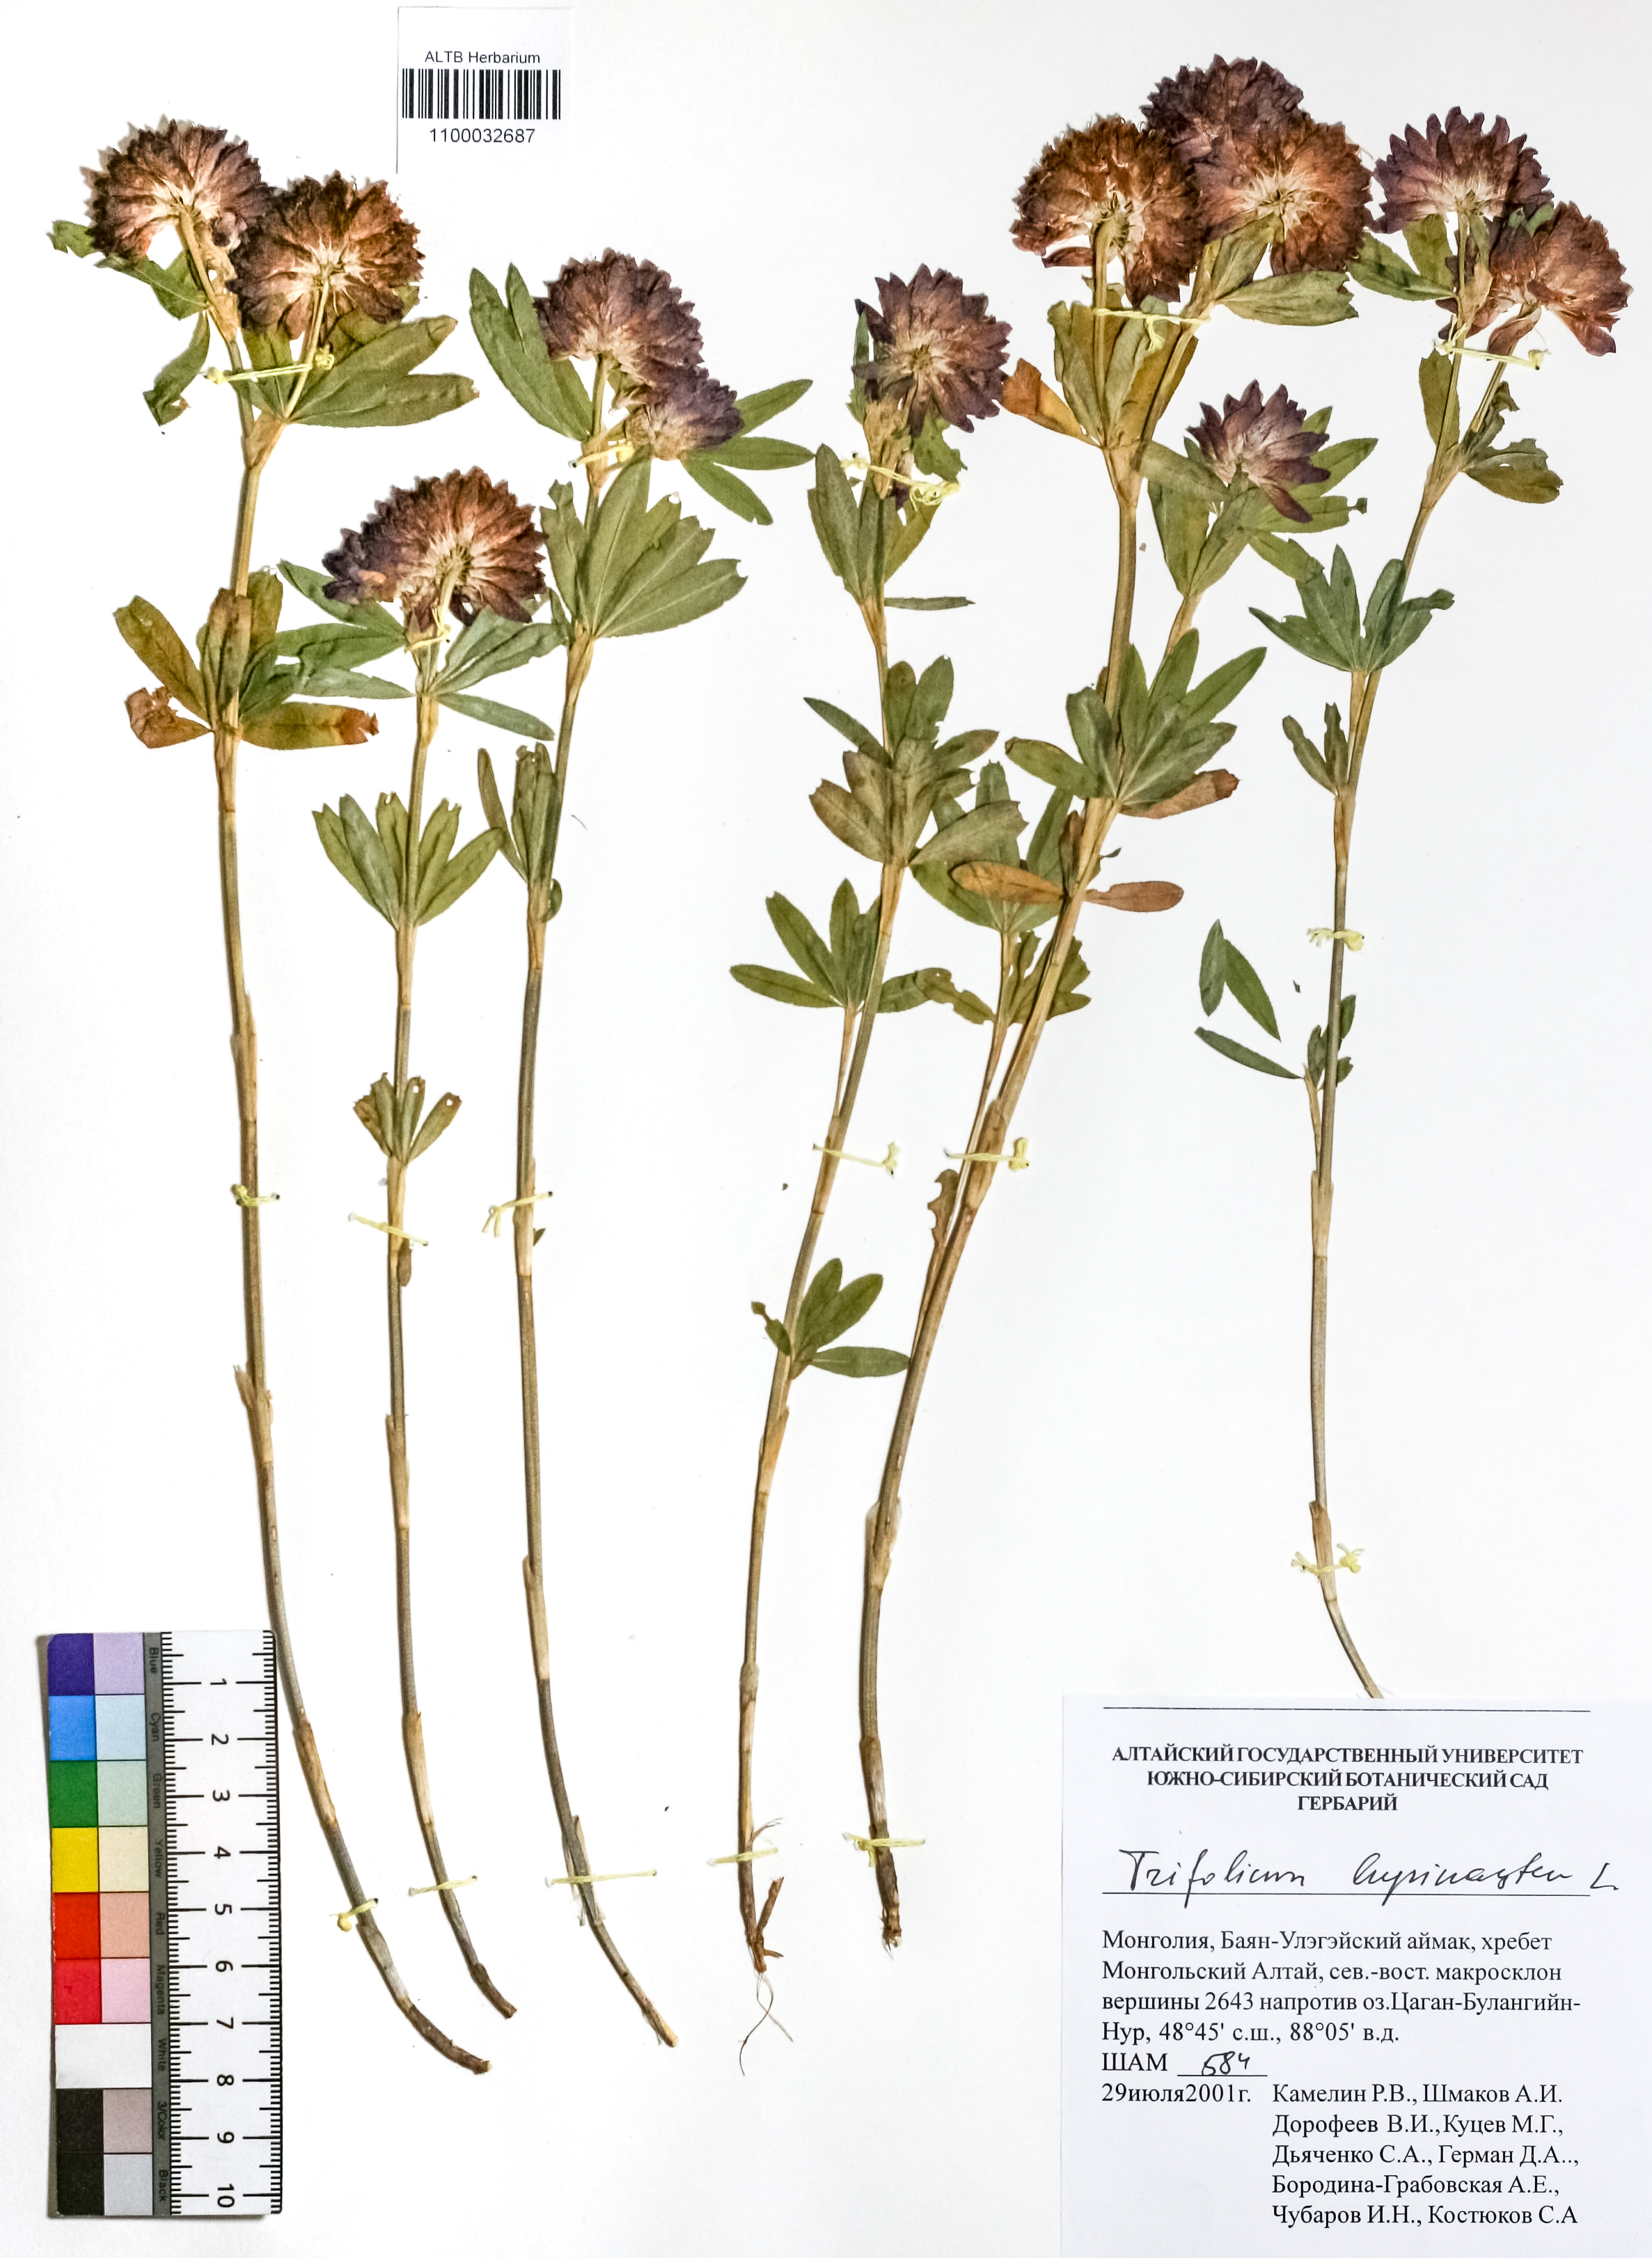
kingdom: Plantae
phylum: Tracheophyta
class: Magnoliopsida
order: Fabales
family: Fabaceae
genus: Trifolium
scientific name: Trifolium lupinaster
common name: Lupine clover
